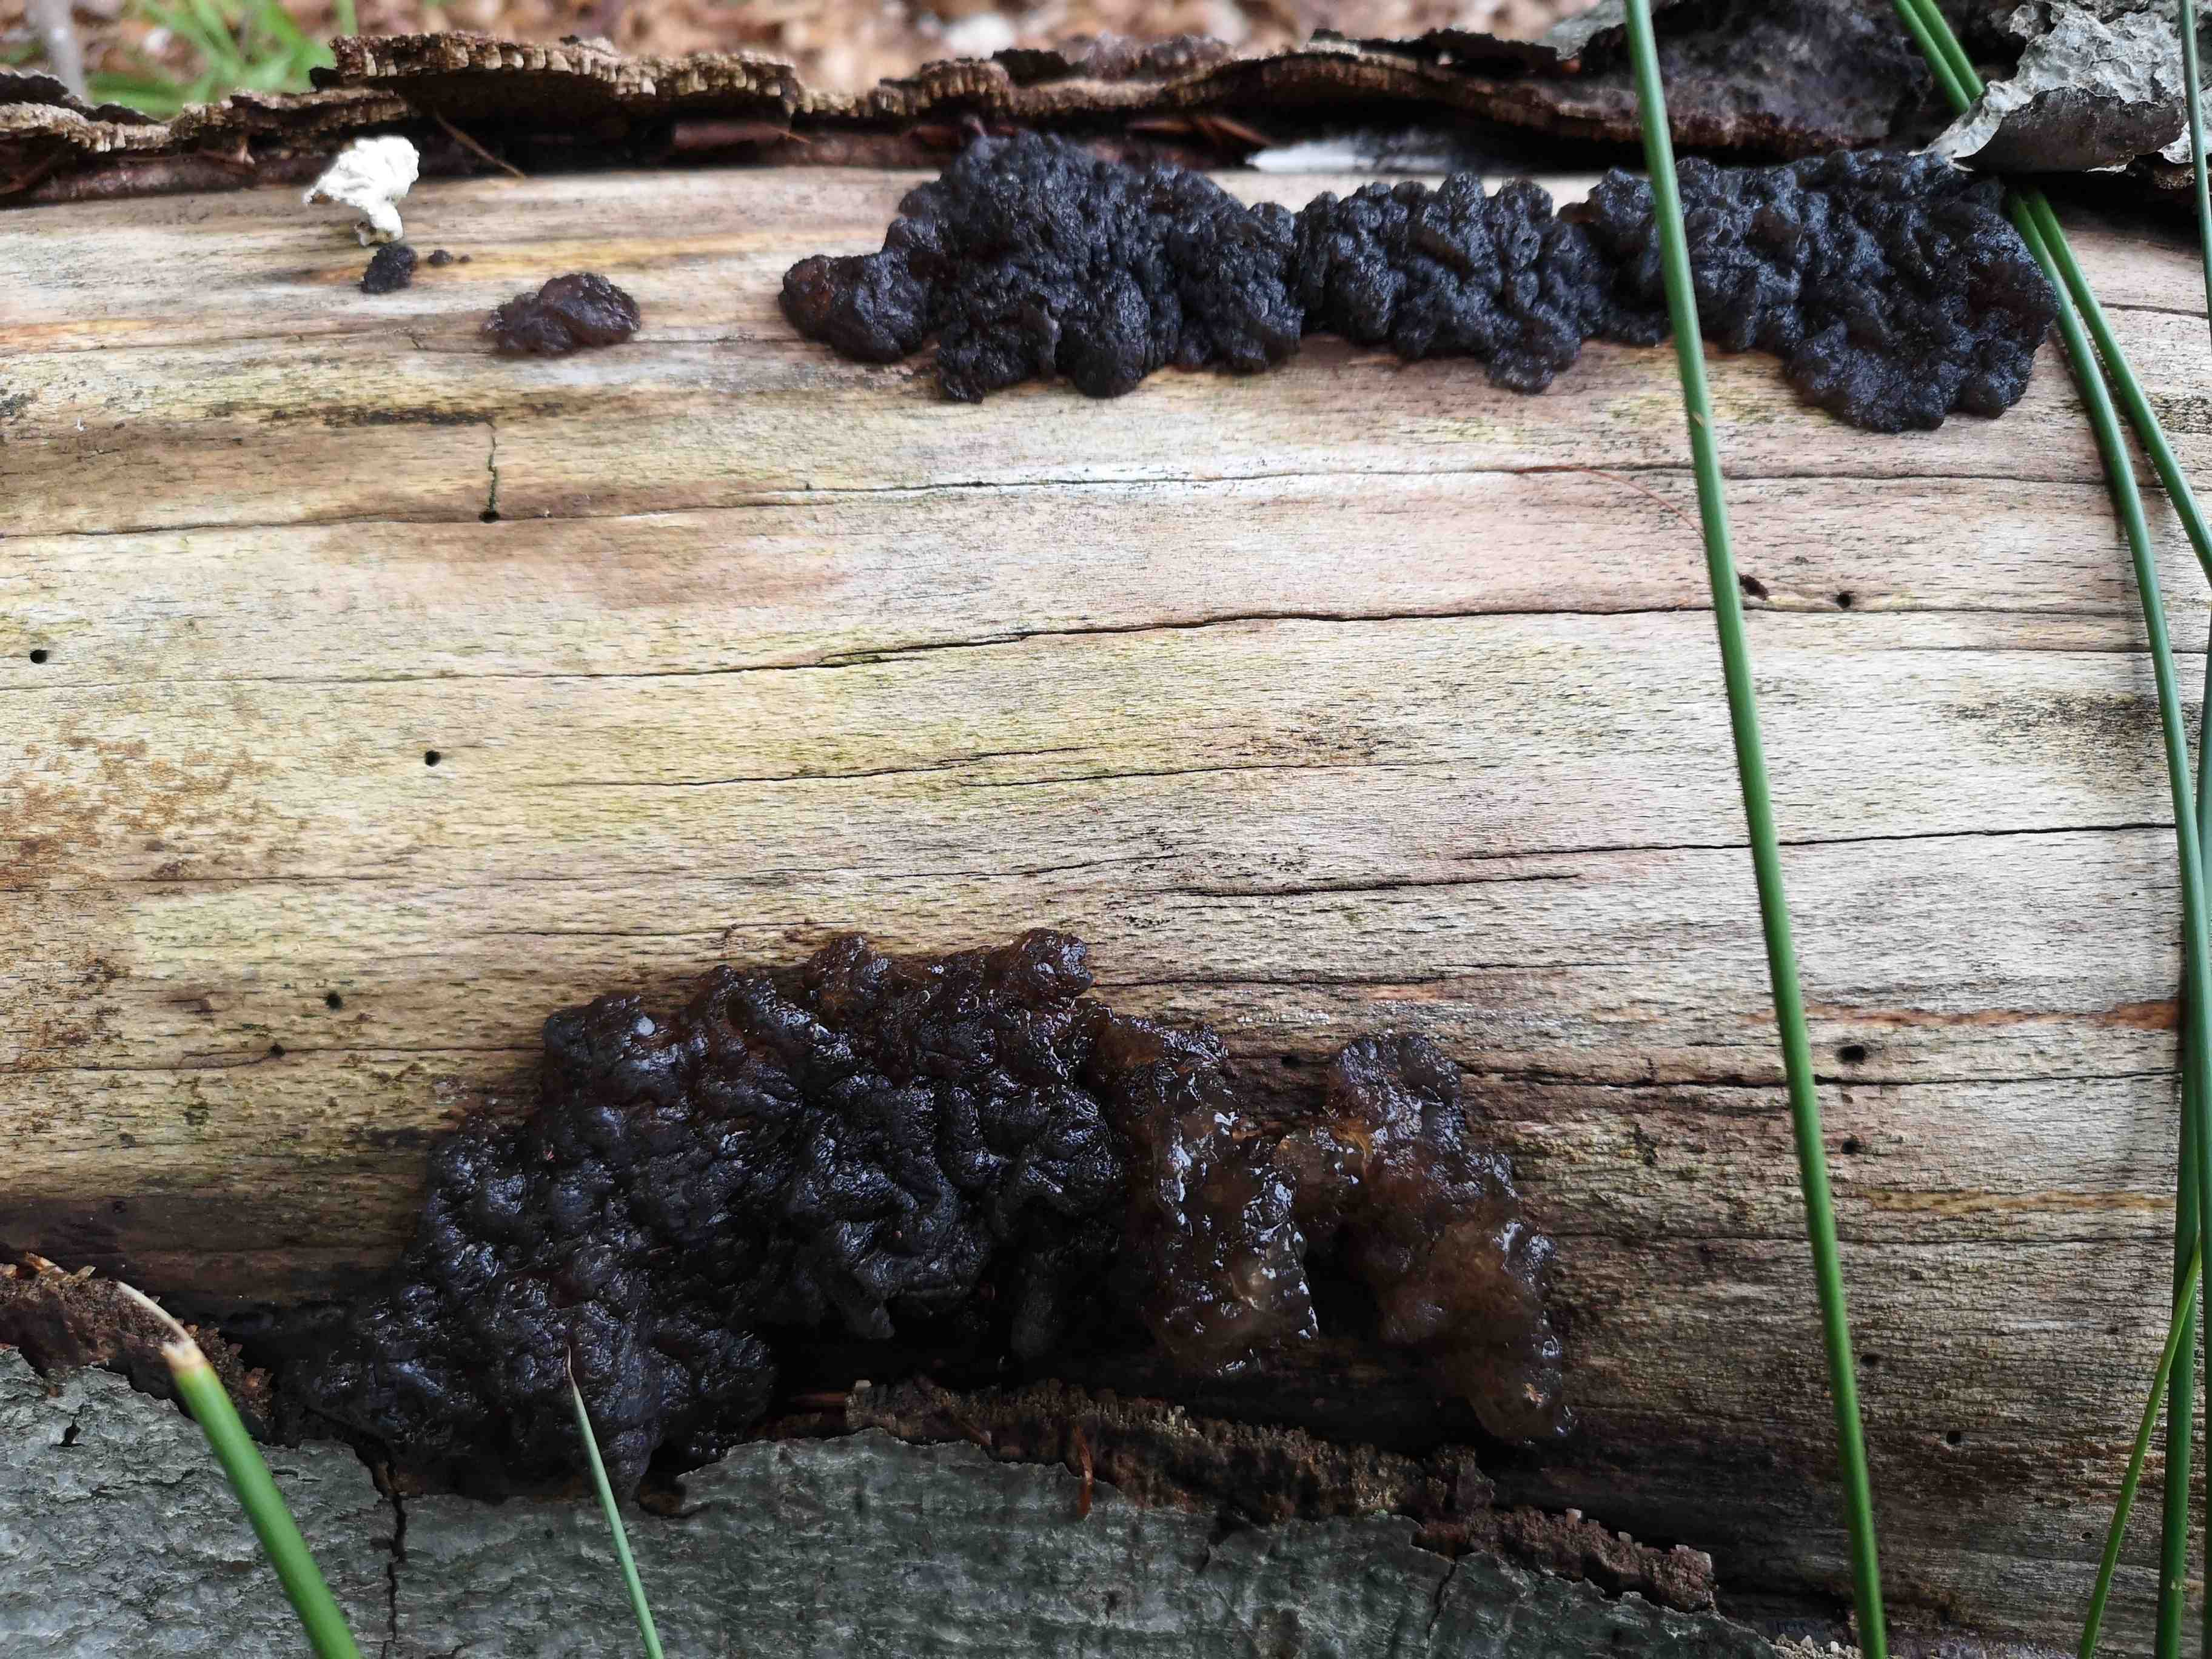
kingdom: Fungi
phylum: Basidiomycota
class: Agaricomycetes
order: Auriculariales
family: Auriculariaceae
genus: Exidia
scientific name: Exidia nigricans
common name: almindelig bævretop
